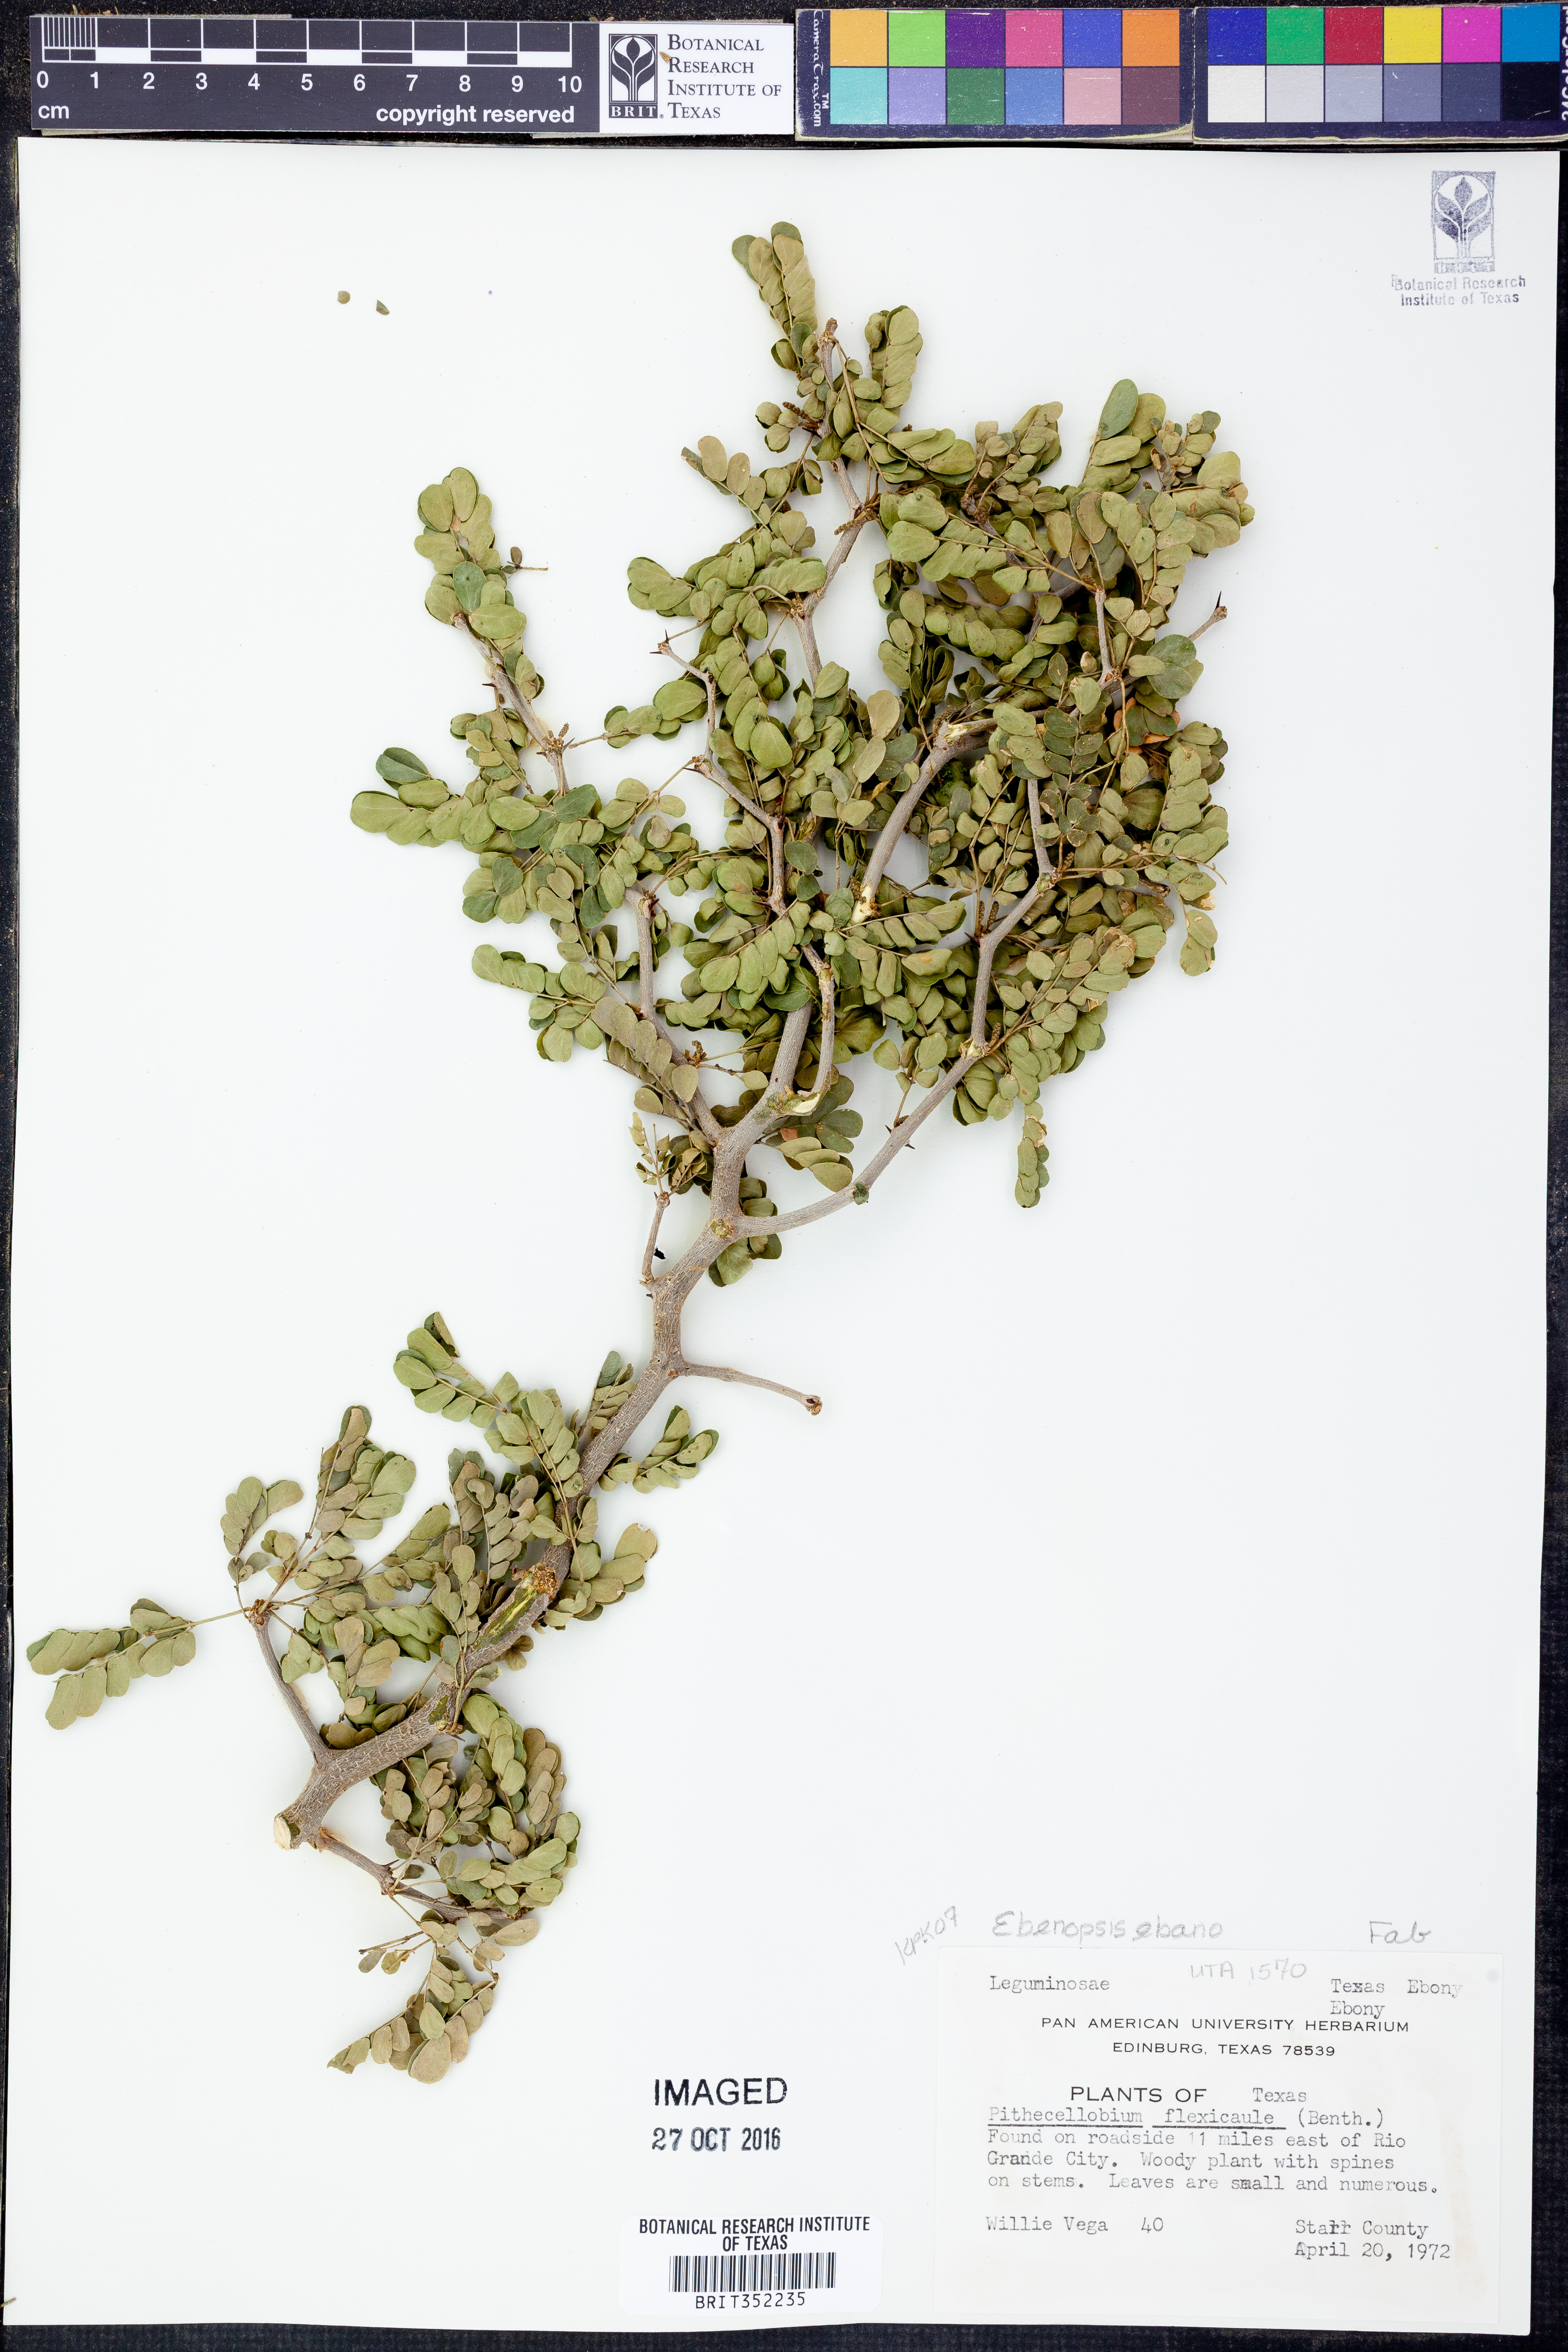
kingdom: Plantae
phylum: Tracheophyta
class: Magnoliopsida
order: Fabales
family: Fabaceae
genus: Ebenopsis
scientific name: Ebenopsis ebano
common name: Ebony blackbead
